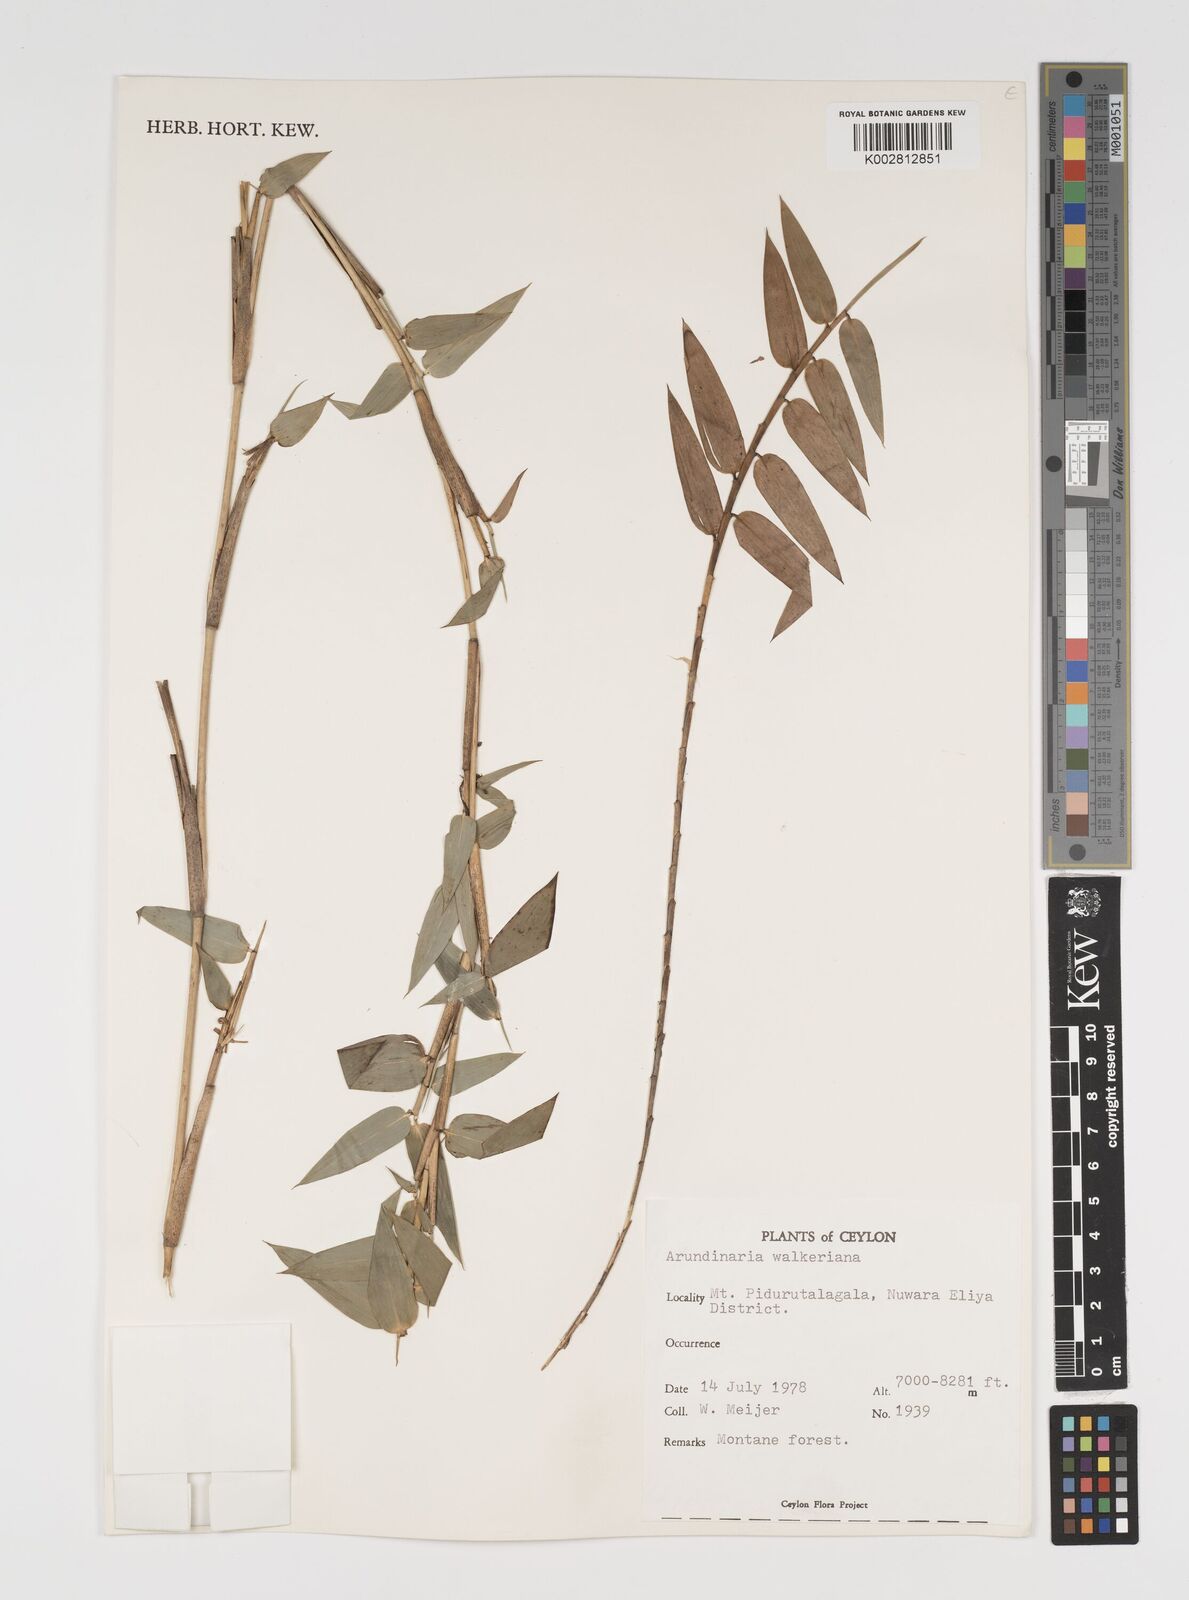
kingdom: Plantae
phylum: Tracheophyta
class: Liliopsida
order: Poales
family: Poaceae
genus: Kuruna
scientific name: Kuruna walkeriana
